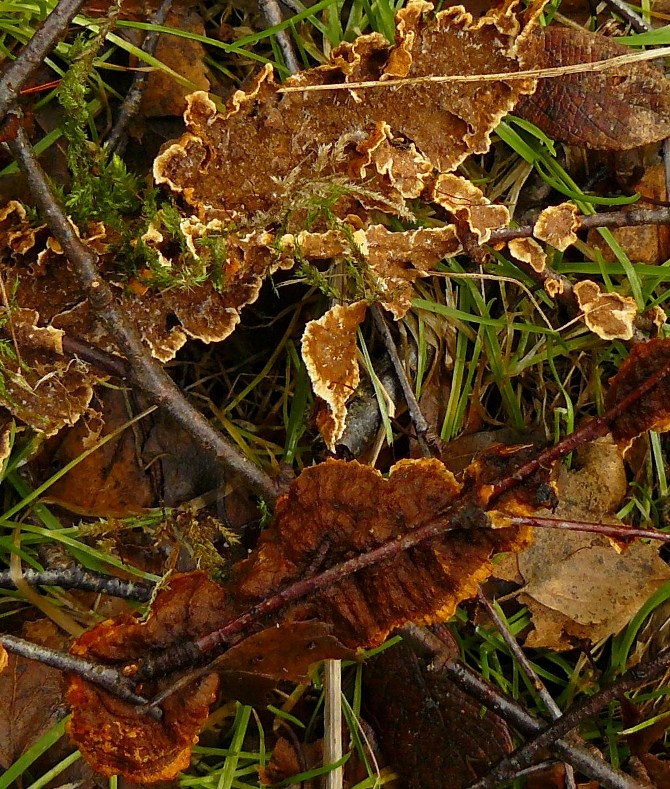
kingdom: Fungi
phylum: Basidiomycota
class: Agaricomycetes
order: Hymenochaetales
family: Hymenochaetaceae
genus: Hydnoporia
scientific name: Hydnoporia tabacina
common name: tobaksbrun ruslædersvamp
